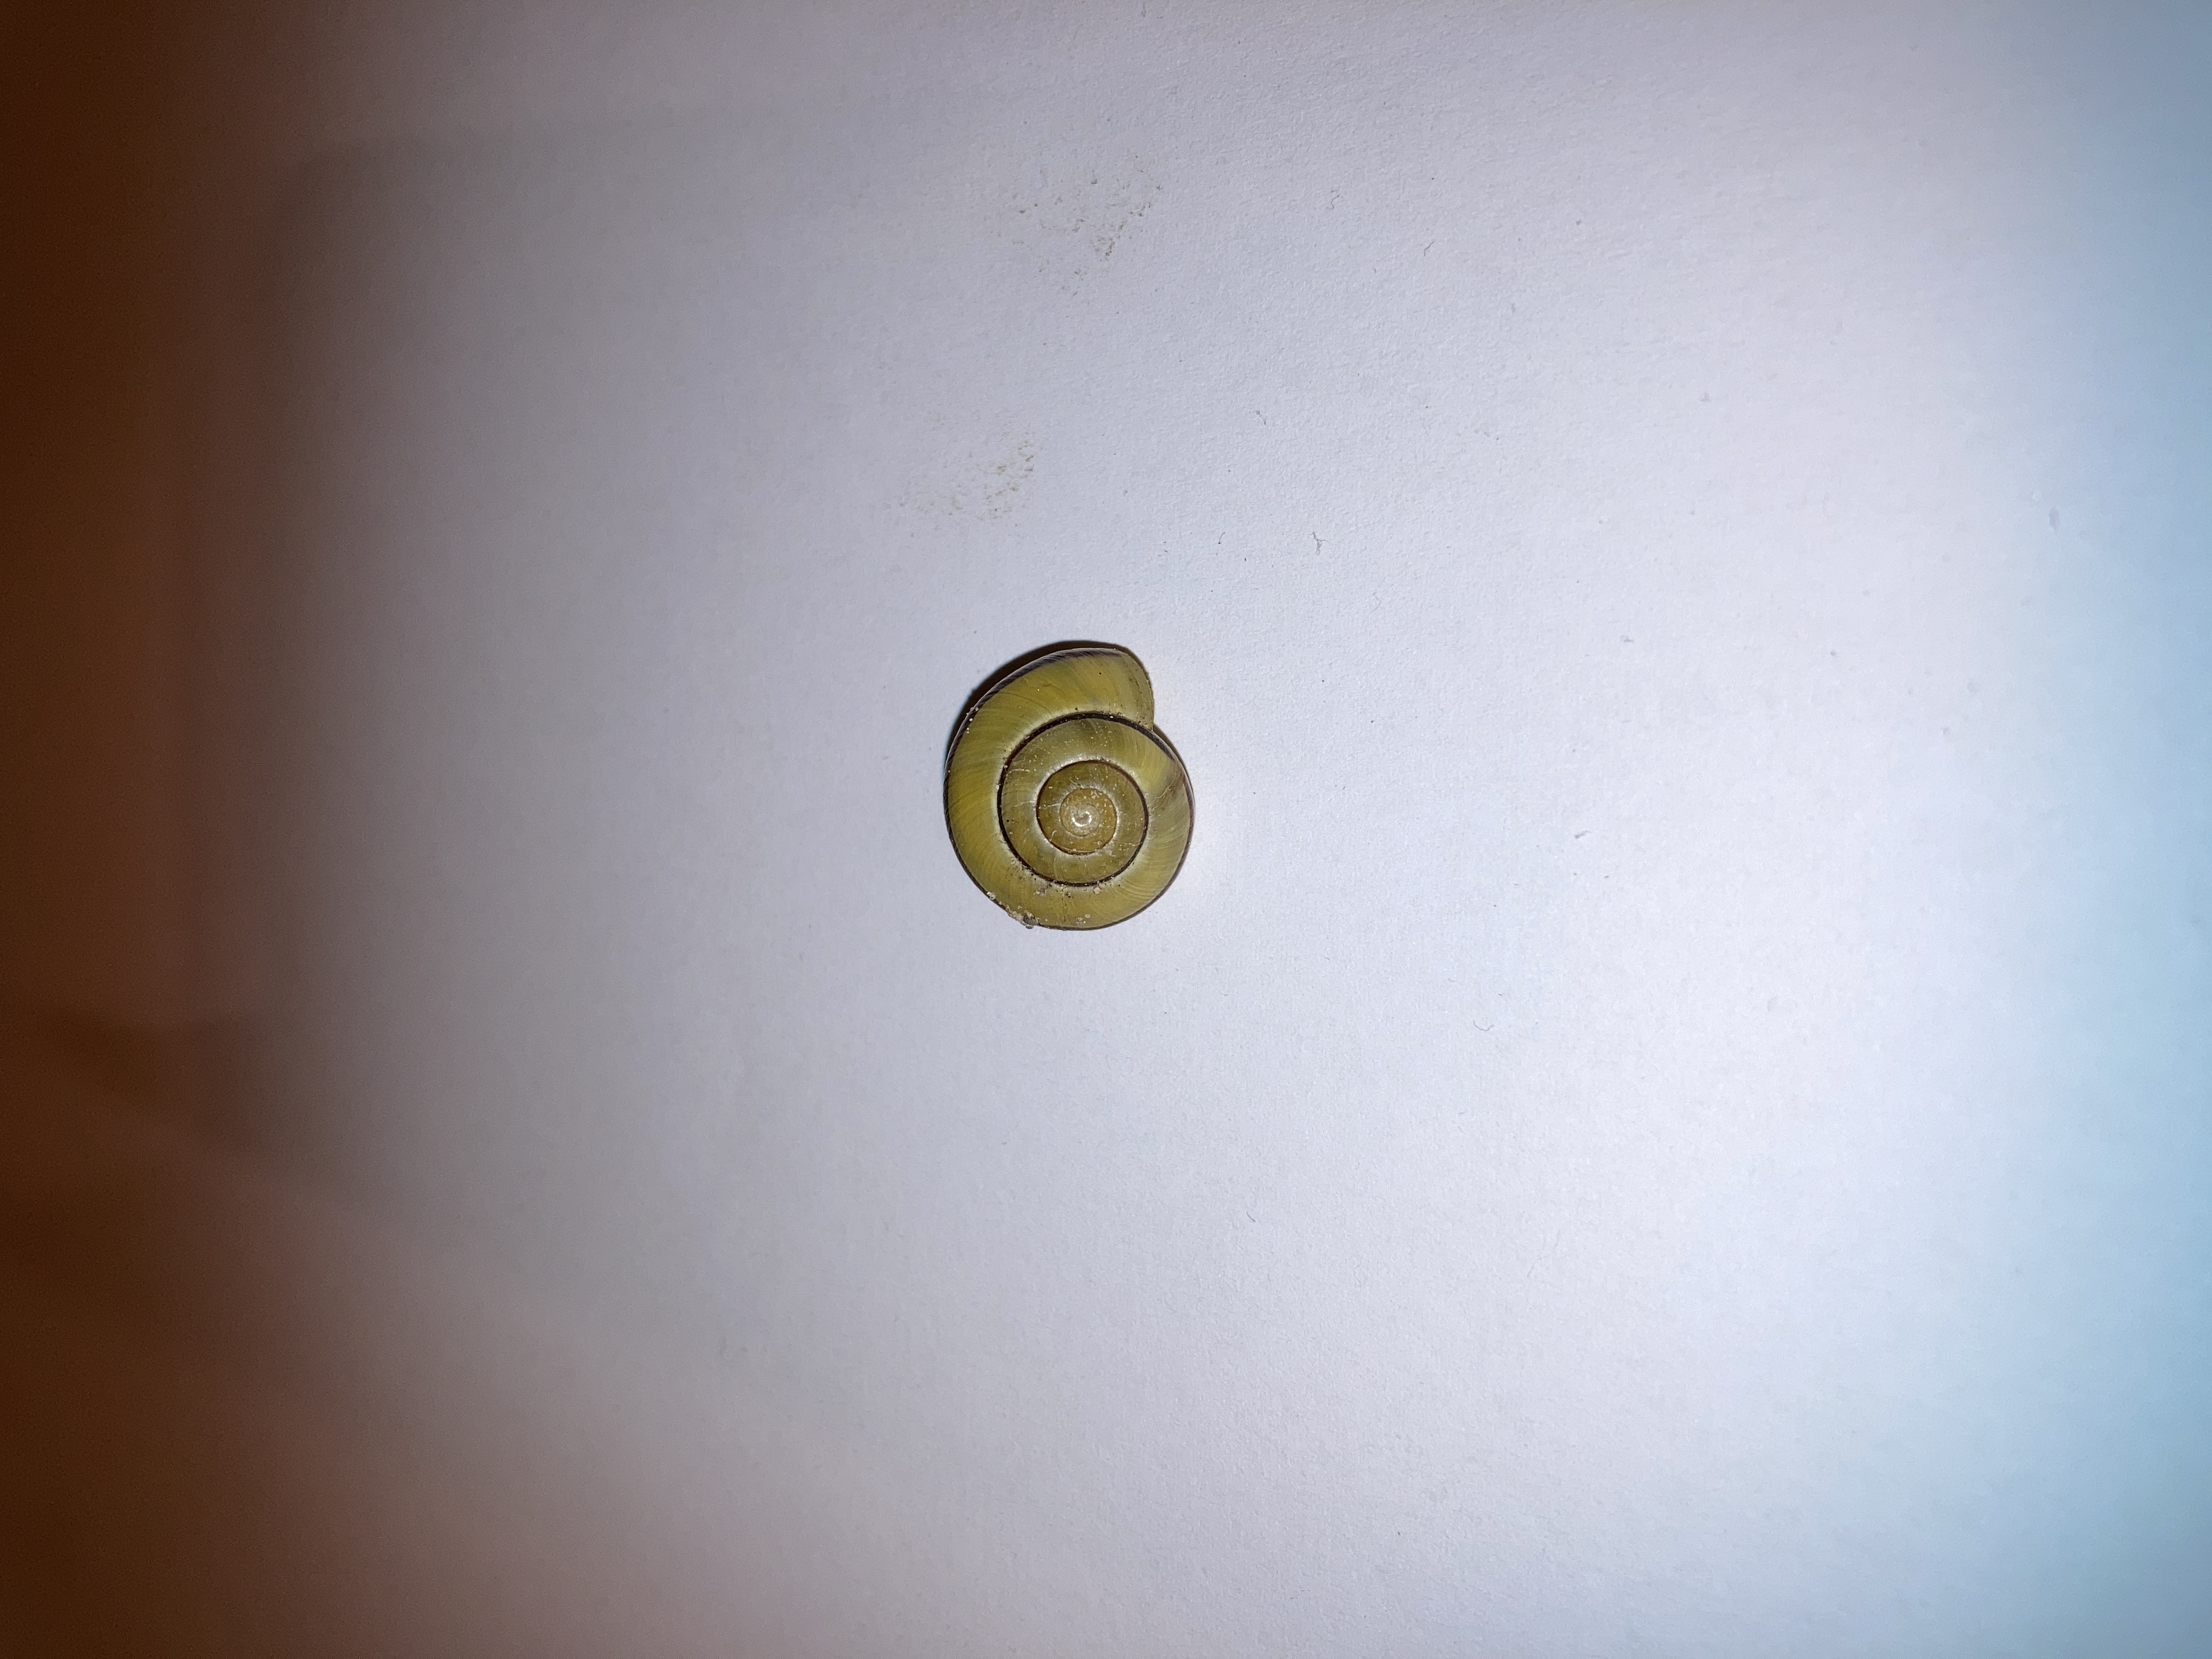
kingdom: Animalia
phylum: Mollusca
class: Gastropoda
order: Stylommatophora
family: Helicidae
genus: Cepaea
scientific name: Cepaea hortensis
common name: Havesnegl
